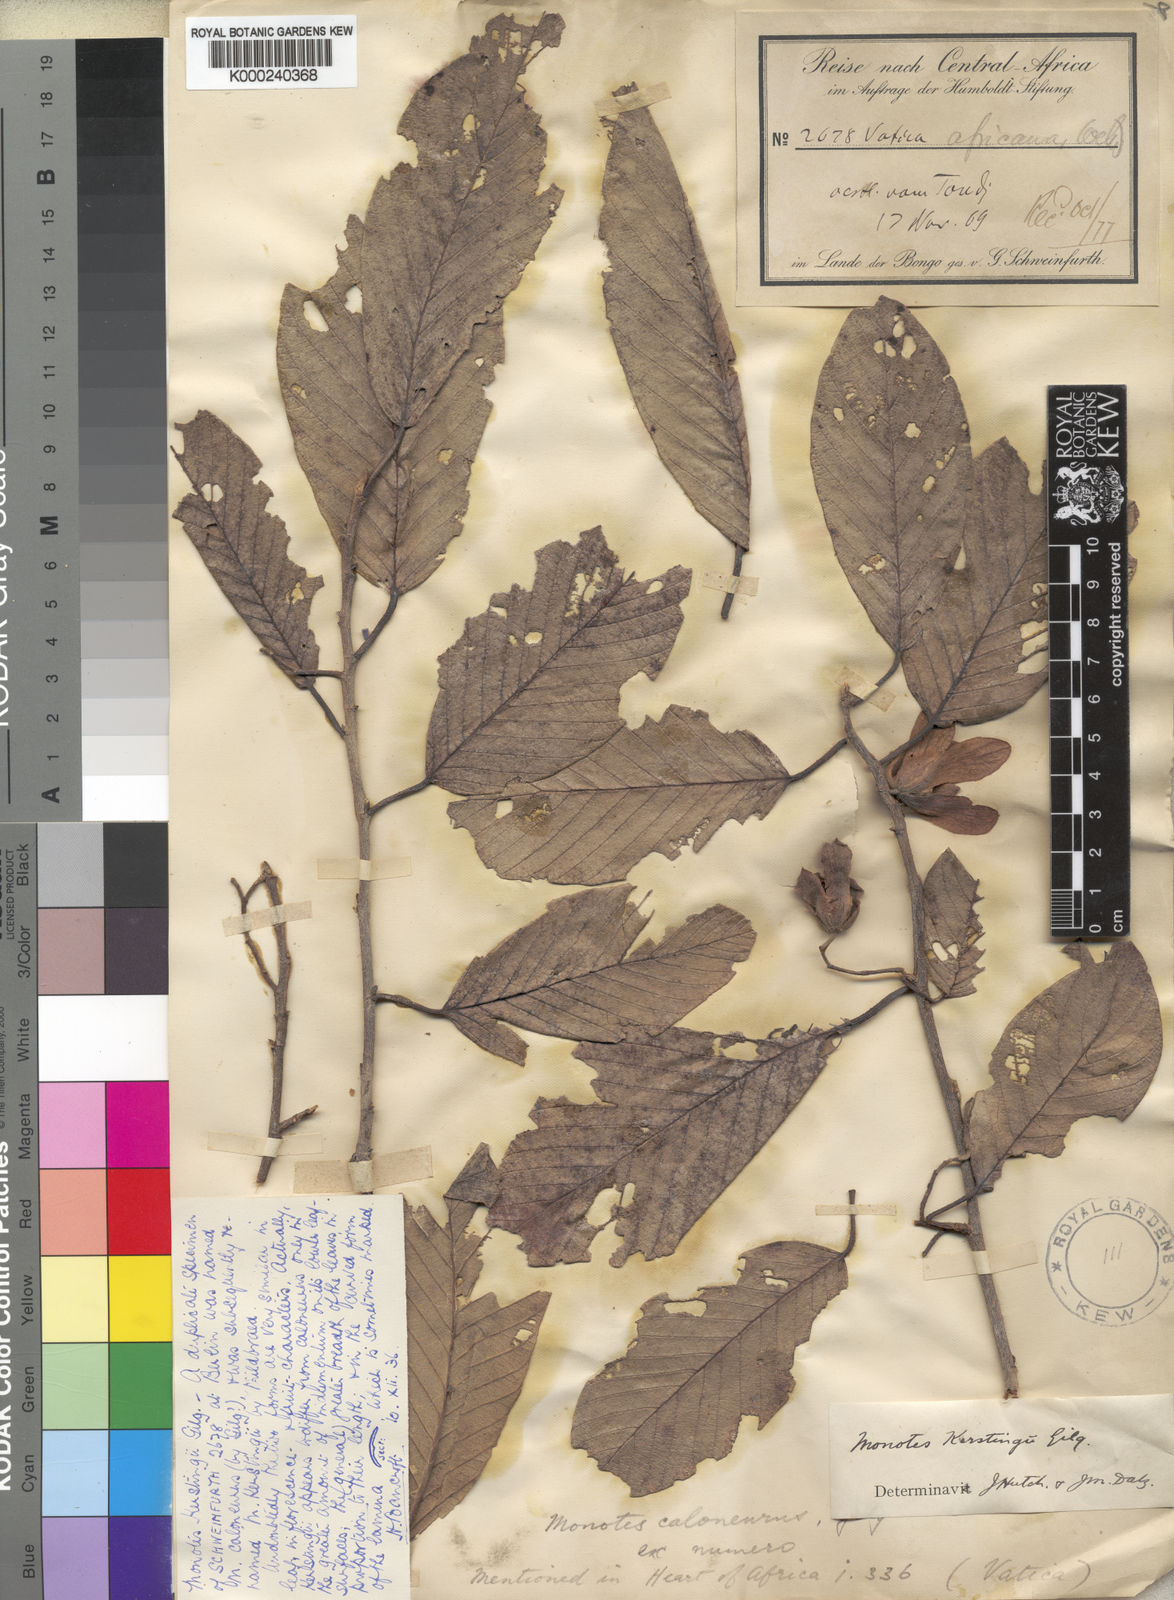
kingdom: Plantae
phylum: Tracheophyta
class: Magnoliopsida
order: Malvales
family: Dipterocarpaceae
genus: Monotes
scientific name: Monotes hypoleucus
